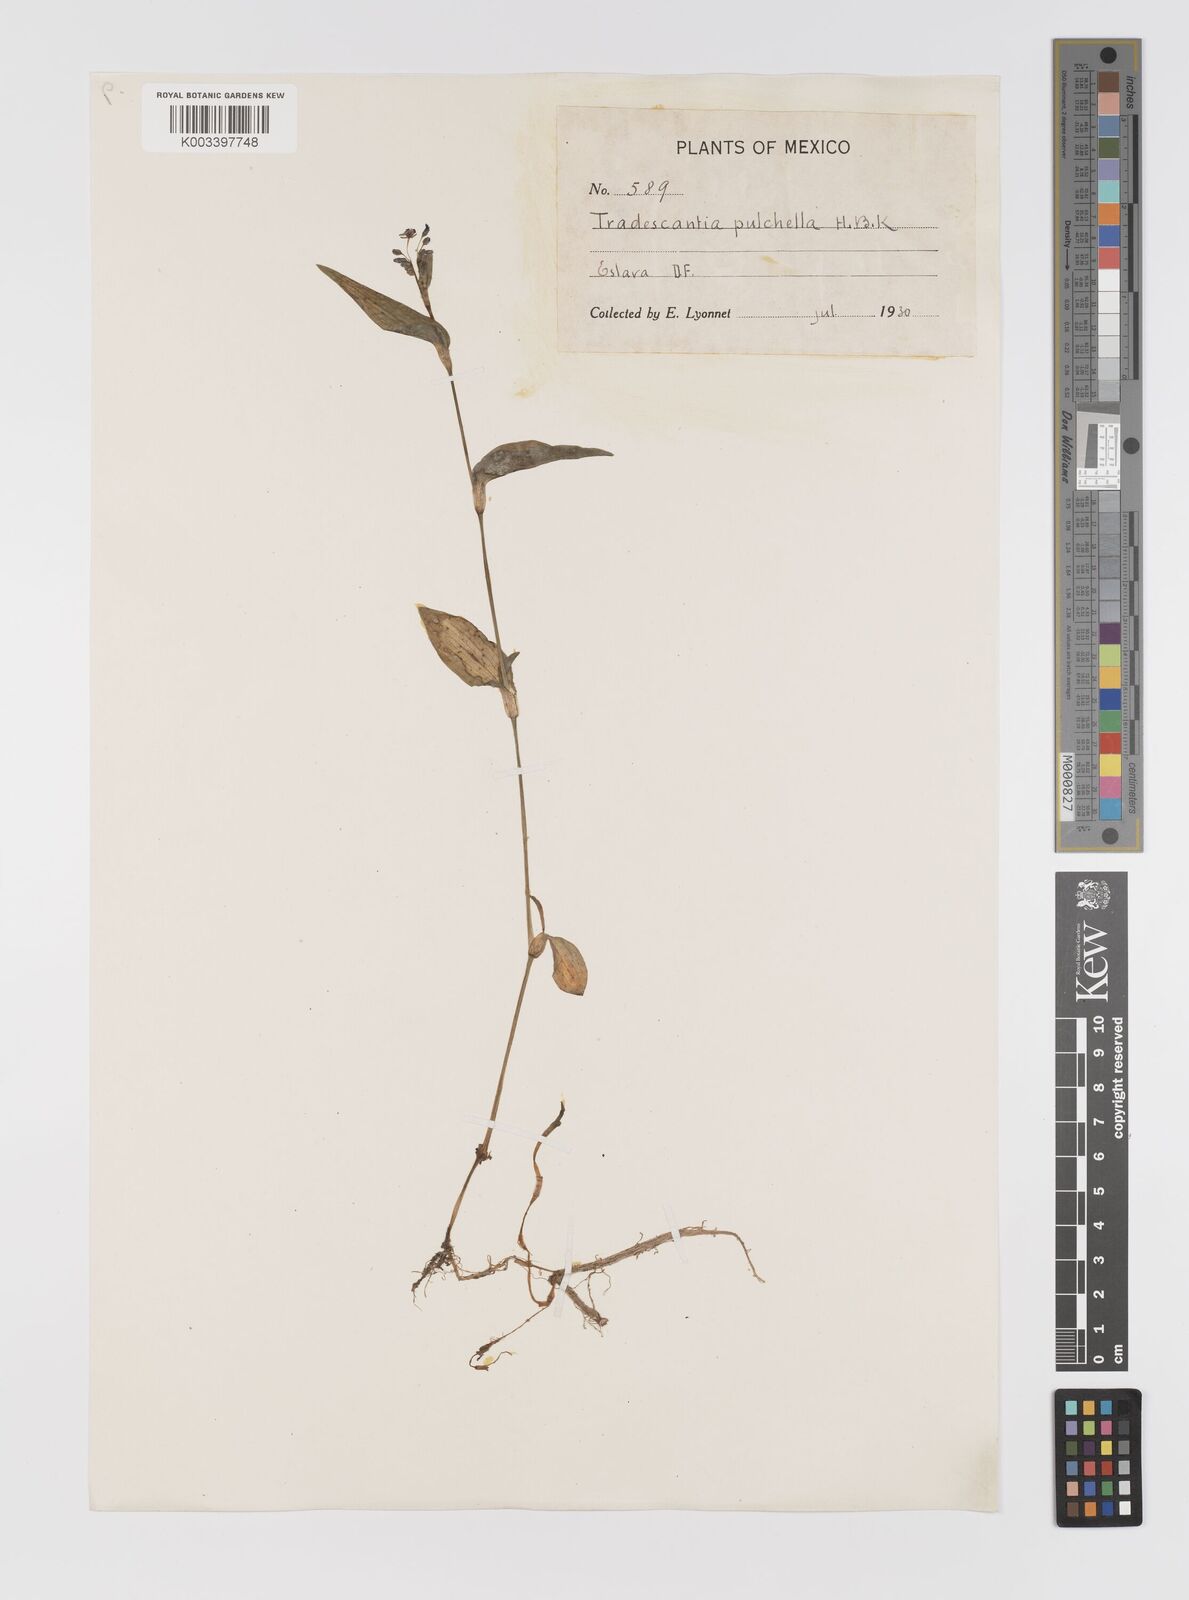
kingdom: Plantae
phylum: Tracheophyta
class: Liliopsida
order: Commelinales
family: Commelinaceae
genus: Gibasis
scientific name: Gibasis pulchella
